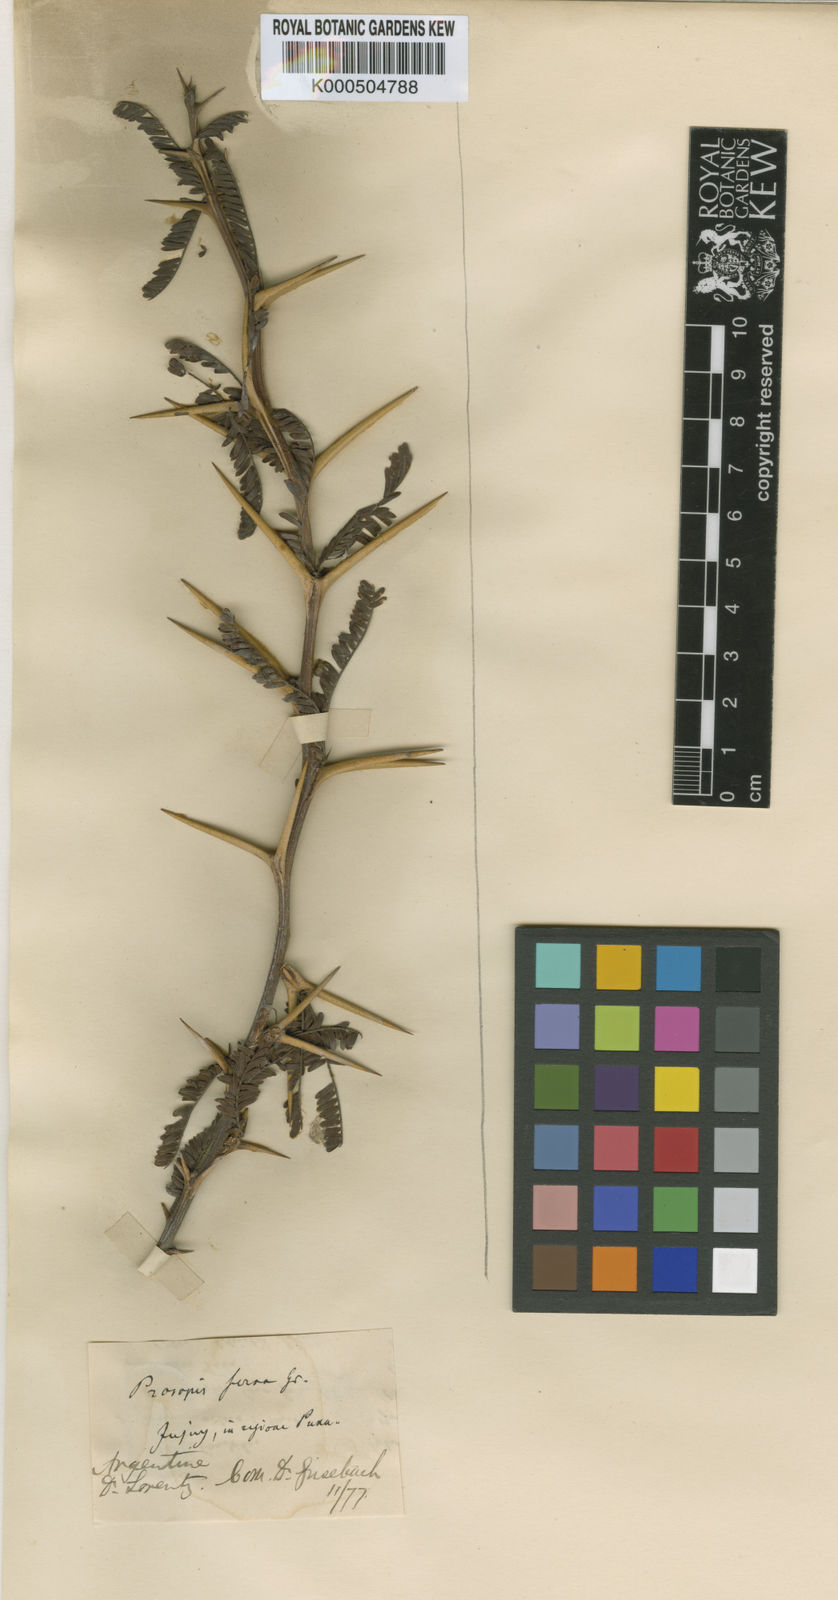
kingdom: Plantae
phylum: Tracheophyta
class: Magnoliopsida
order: Fabales
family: Fabaceae
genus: Prosopis
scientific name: Prosopis ferox
